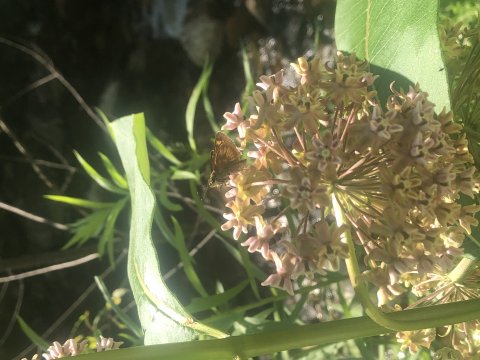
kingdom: Animalia
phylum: Arthropoda
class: Insecta
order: Lepidoptera
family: Hesperiidae
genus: Polites
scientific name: Polites
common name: Long Dash Skipper
